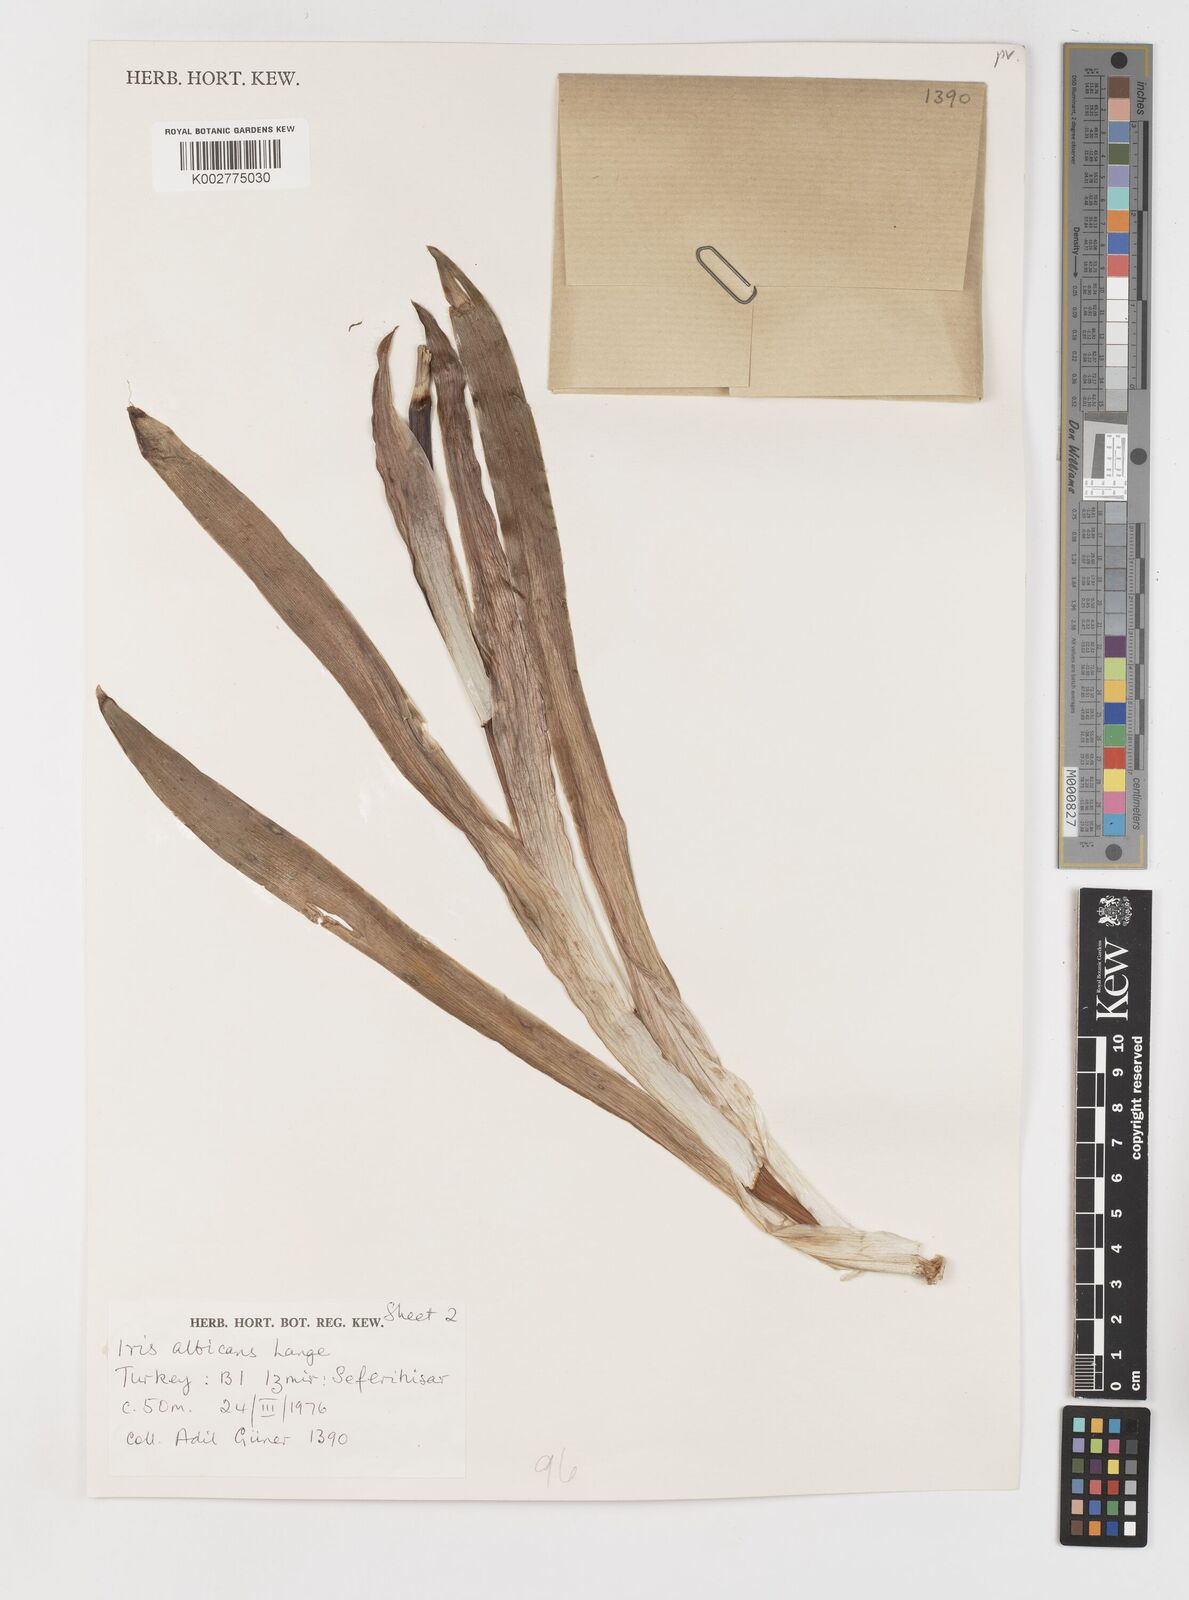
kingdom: Plantae
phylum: Tracheophyta
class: Liliopsida
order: Asparagales
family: Iridaceae
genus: Iris
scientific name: Iris florentina
